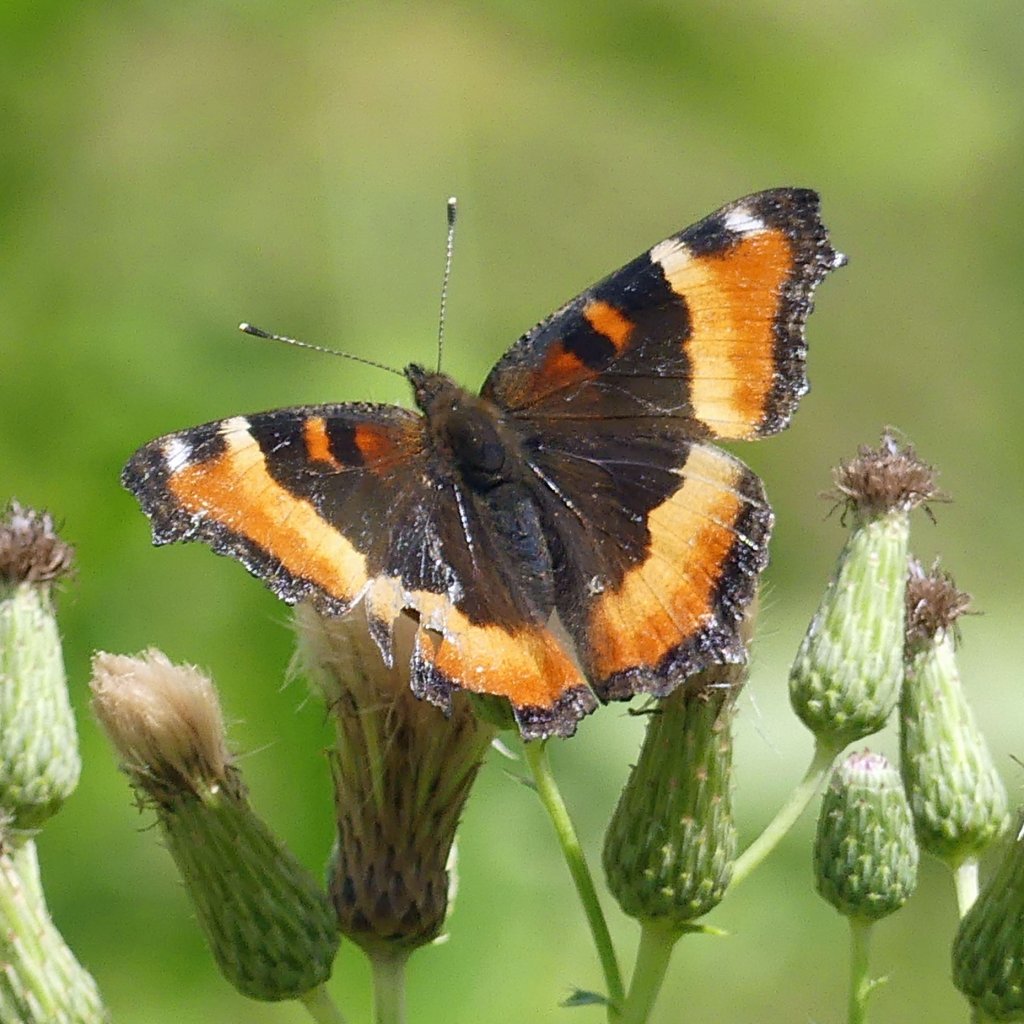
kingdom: Animalia
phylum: Arthropoda
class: Insecta
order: Lepidoptera
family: Nymphalidae
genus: Aglais
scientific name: Aglais milberti
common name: Milbert's Tortoiseshell
